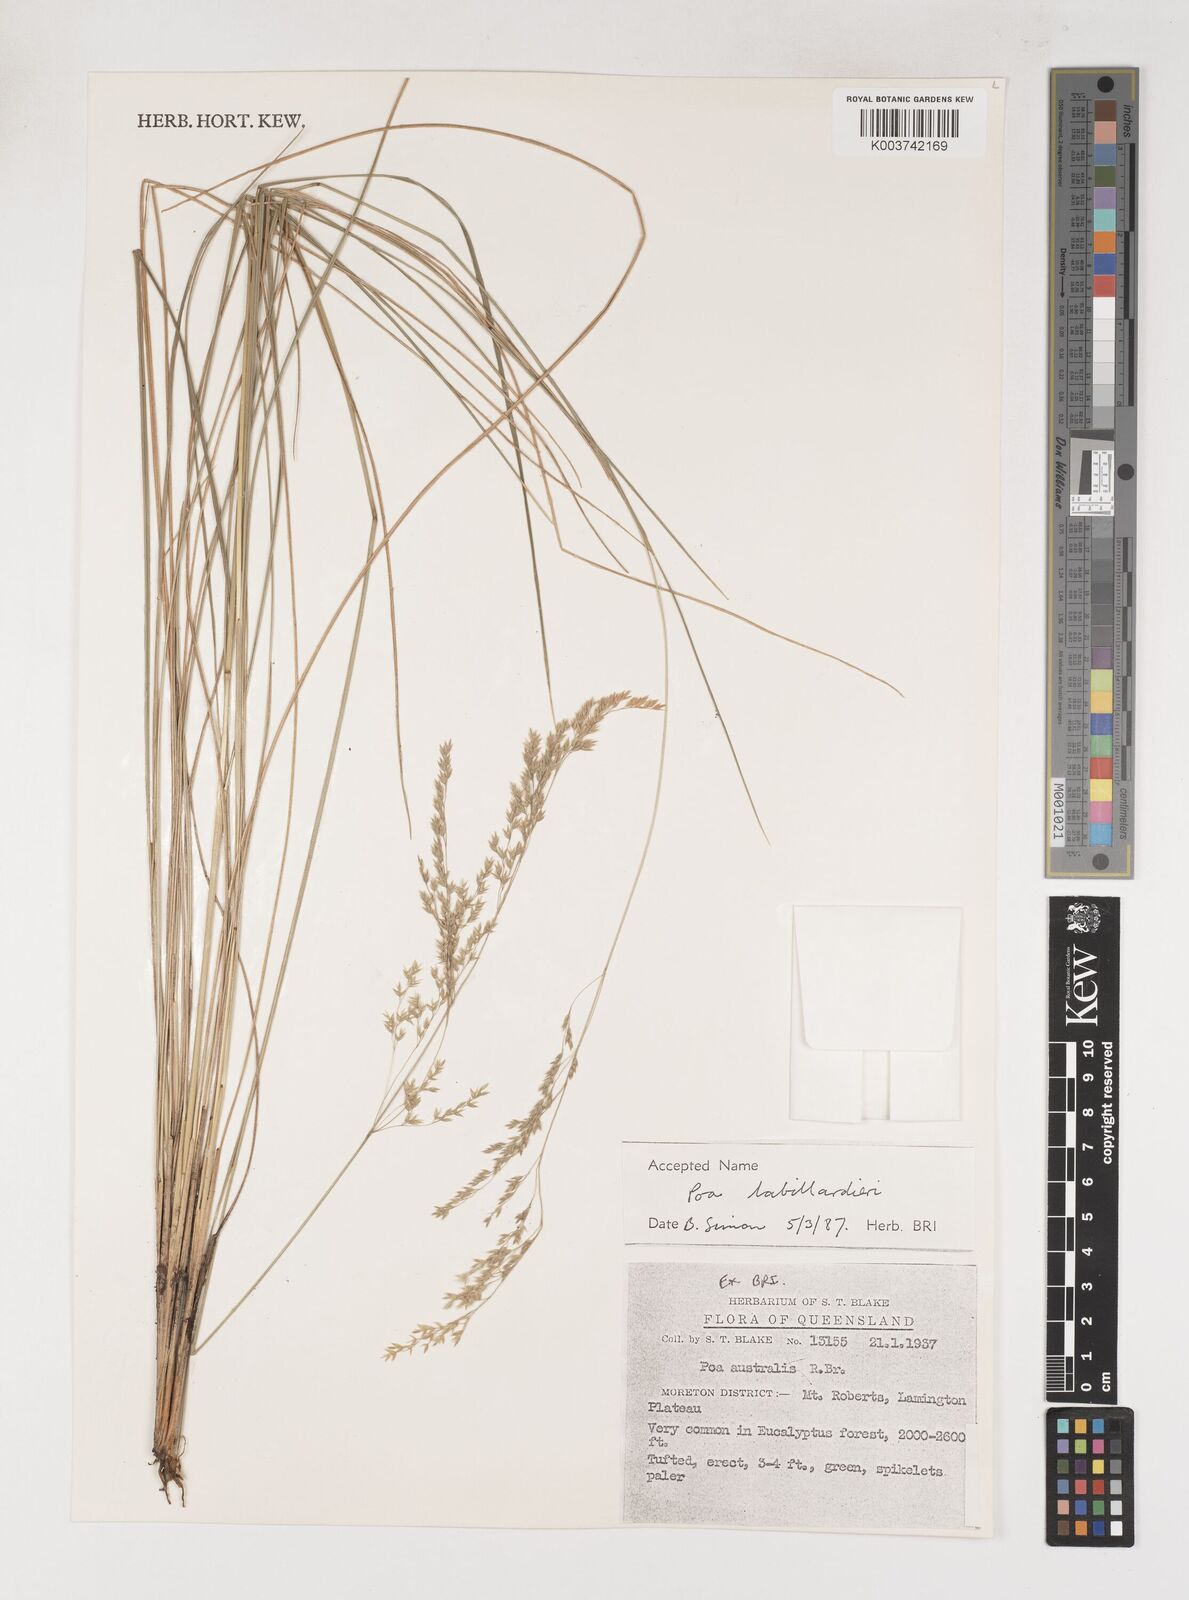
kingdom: Plantae
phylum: Tracheophyta
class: Liliopsida
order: Poales
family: Poaceae
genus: Poa
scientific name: Poa labillardierei
